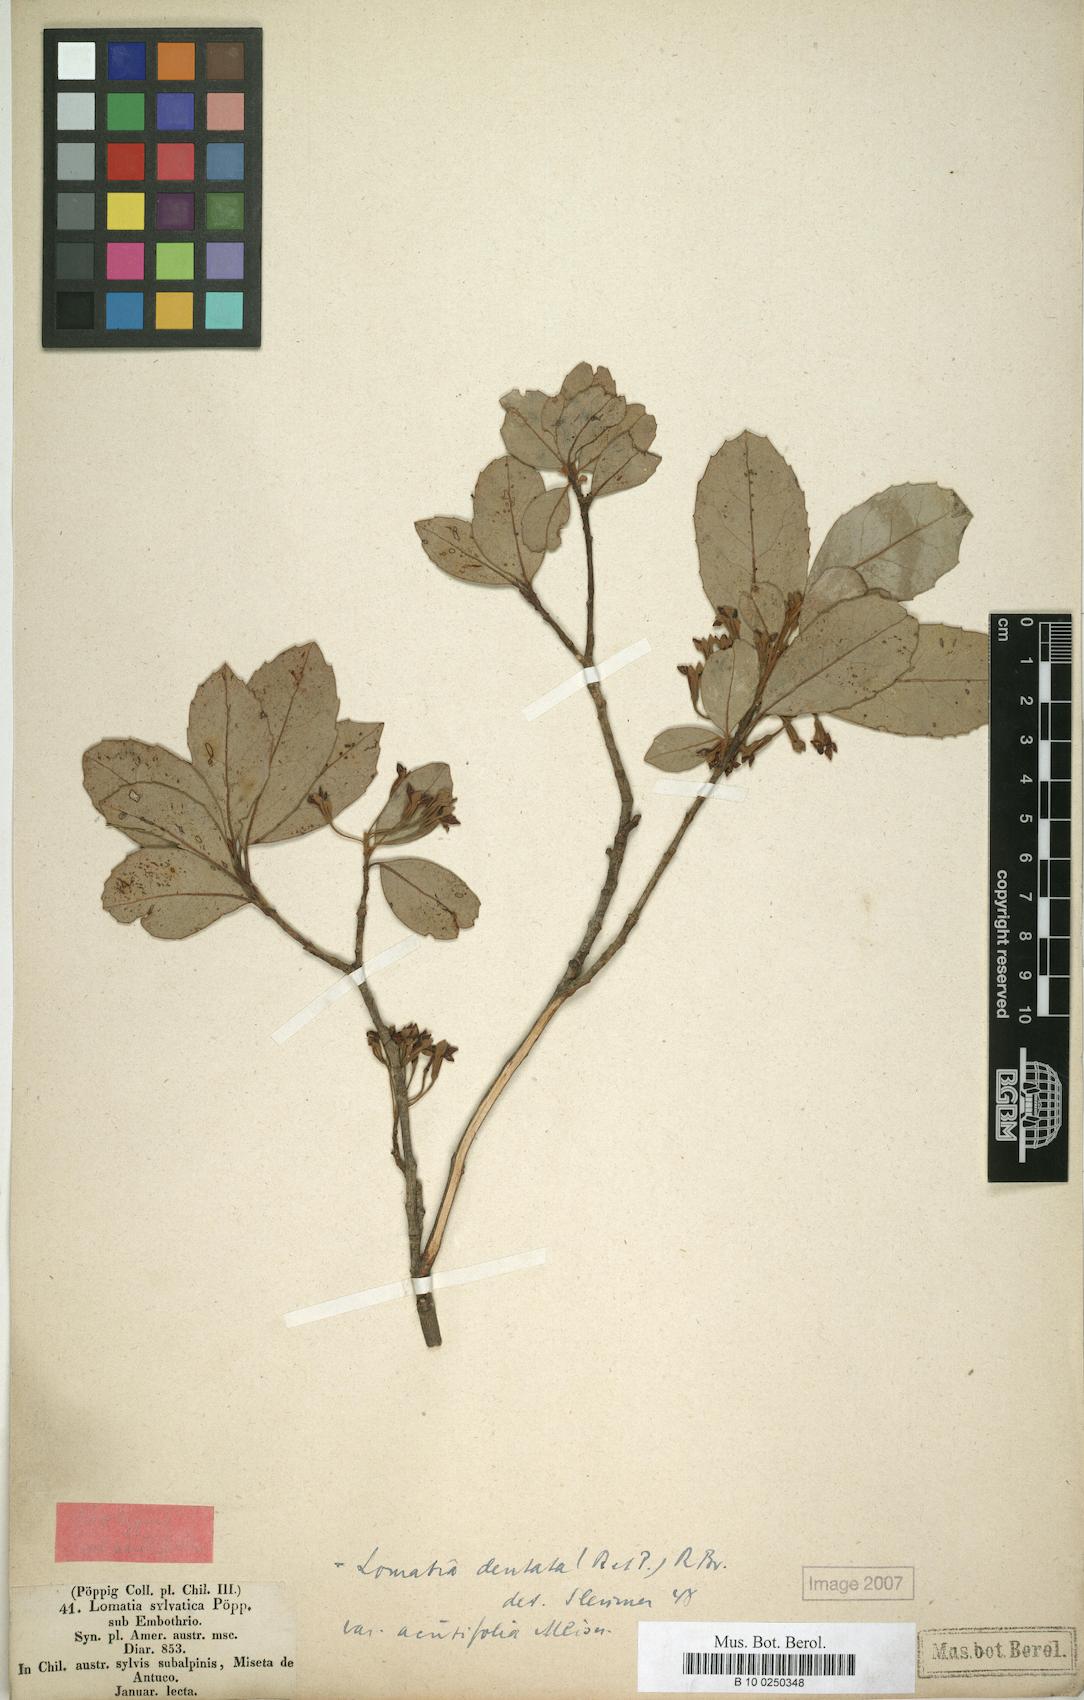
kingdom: Plantae
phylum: Tracheophyta
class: Magnoliopsida
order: Proteales
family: Proteaceae
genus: Lomatia
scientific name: Lomatia dentata
